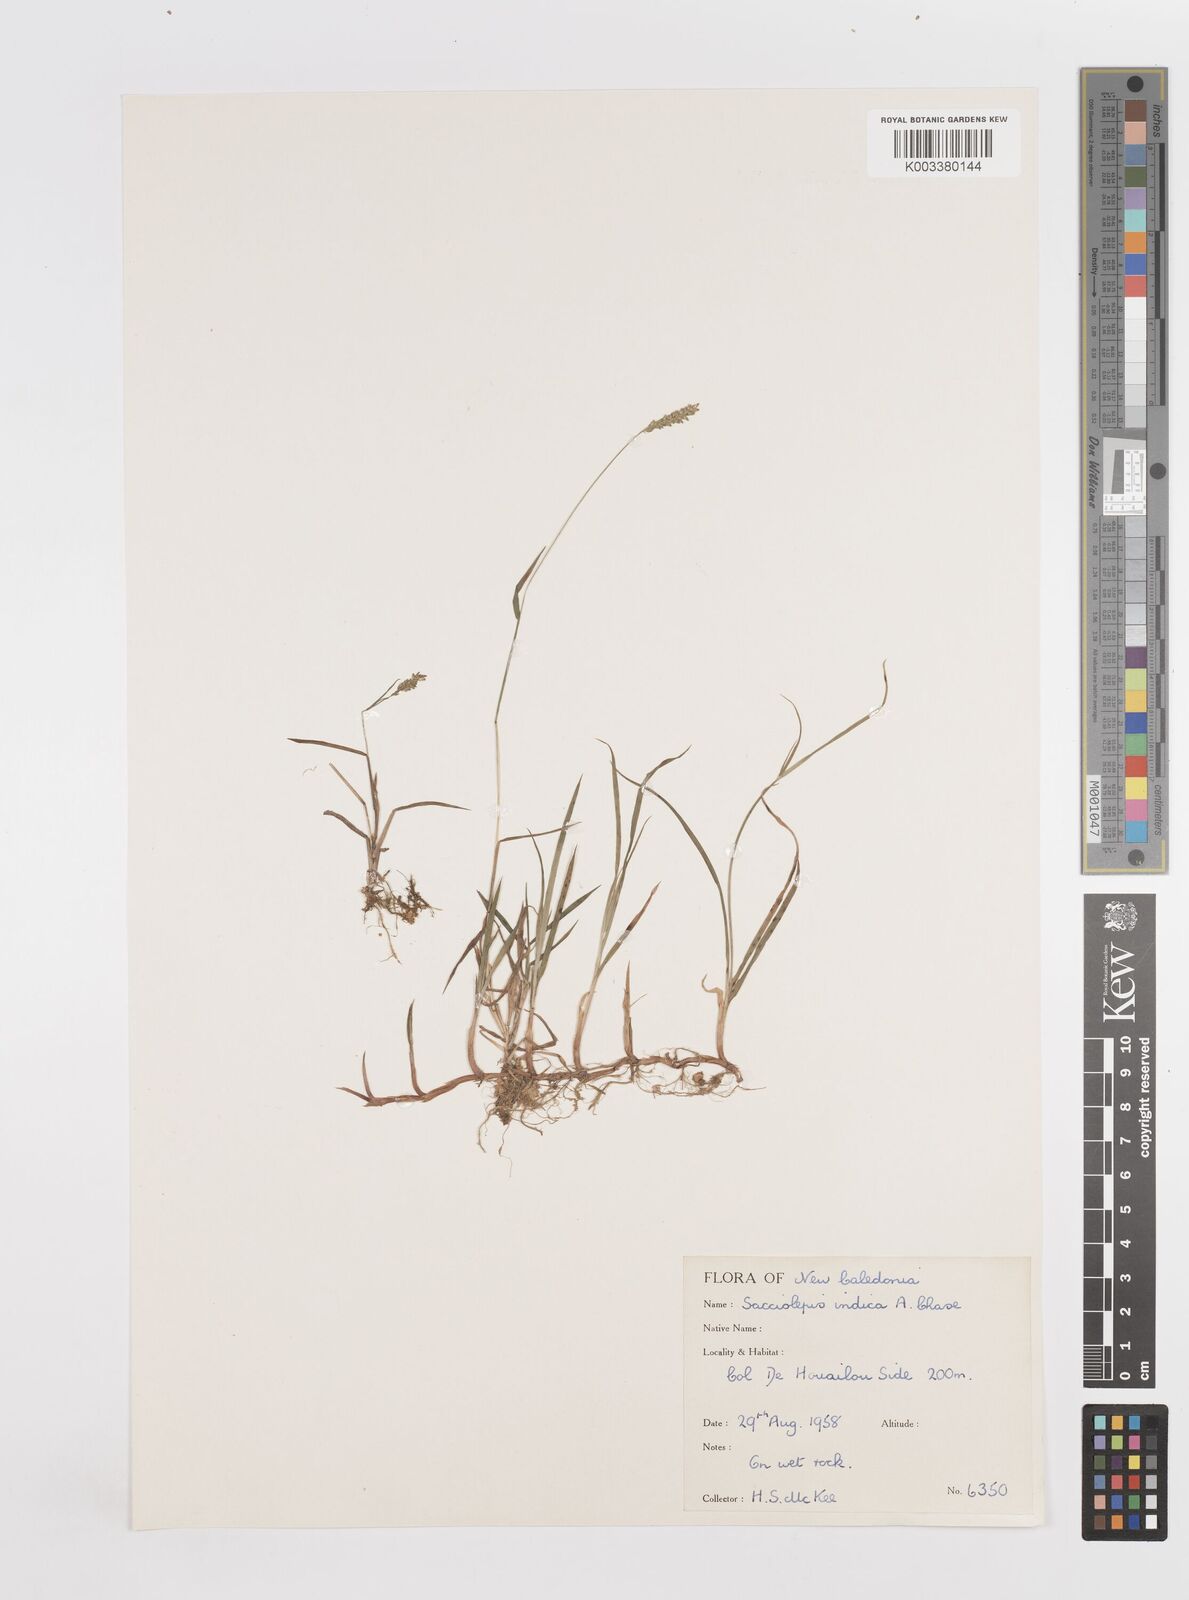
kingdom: Plantae
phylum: Tracheophyta
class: Liliopsida
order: Poales
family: Poaceae
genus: Sacciolepis
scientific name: Sacciolepis indica
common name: Glenwoodgrass
